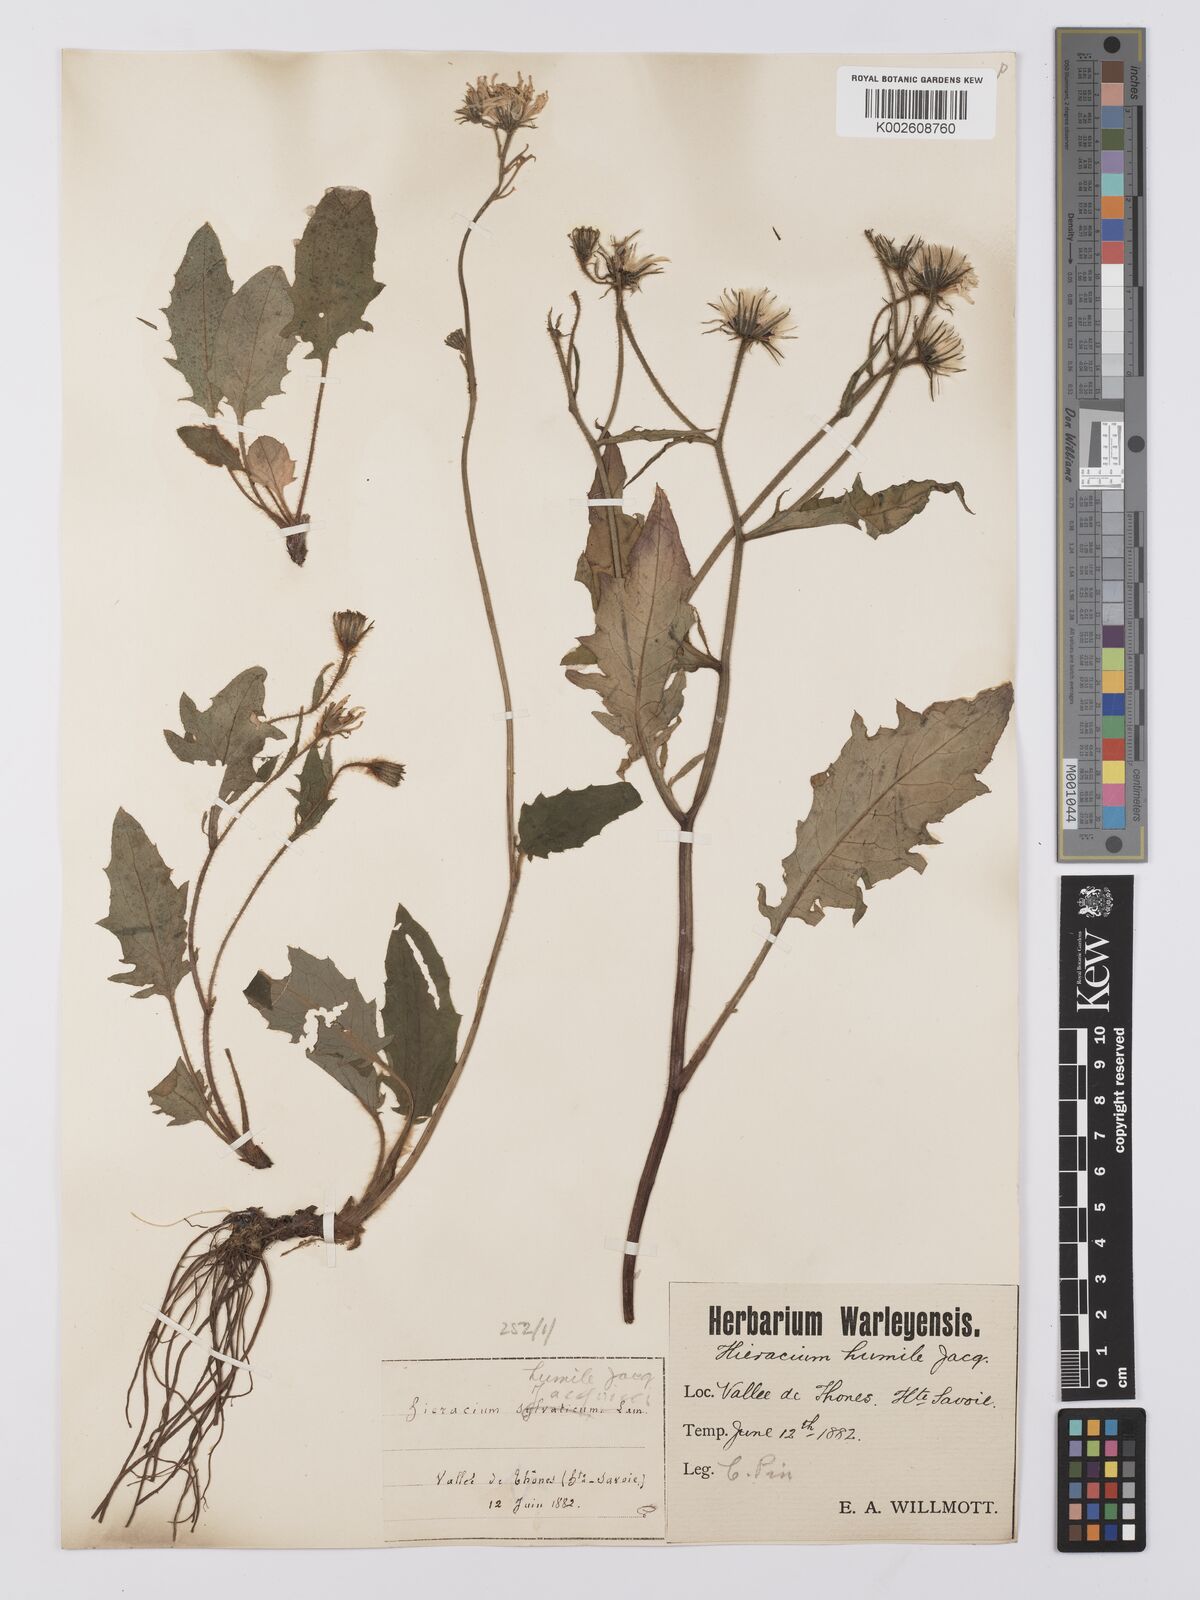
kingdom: Plantae
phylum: Tracheophyta
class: Magnoliopsida
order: Asterales
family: Asteraceae
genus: Hieracium
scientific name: Hieracium humile
